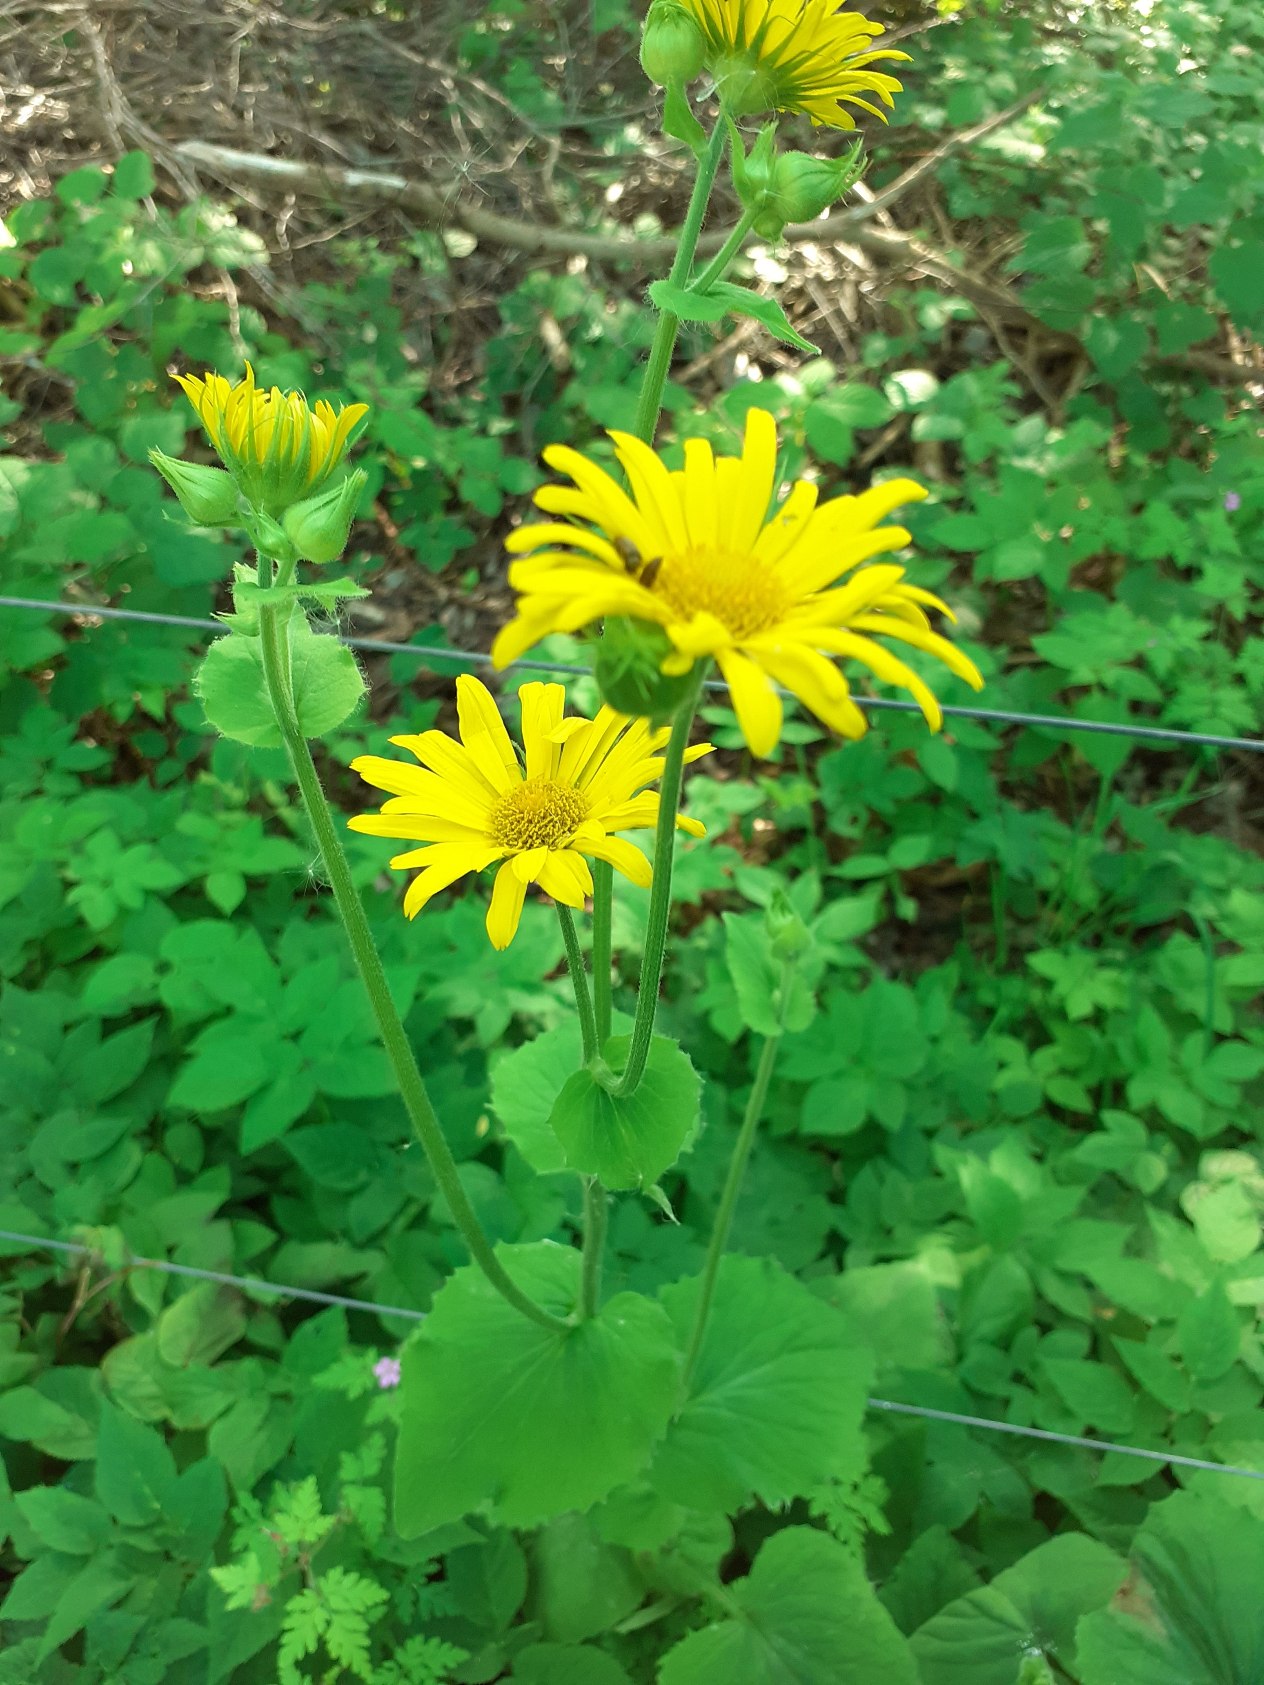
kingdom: Plantae
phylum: Tracheophyta
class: Magnoliopsida
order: Asterales
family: Asteraceae
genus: Doronicum
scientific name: Doronicum pardalianches
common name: Hjertebladet gemserod
